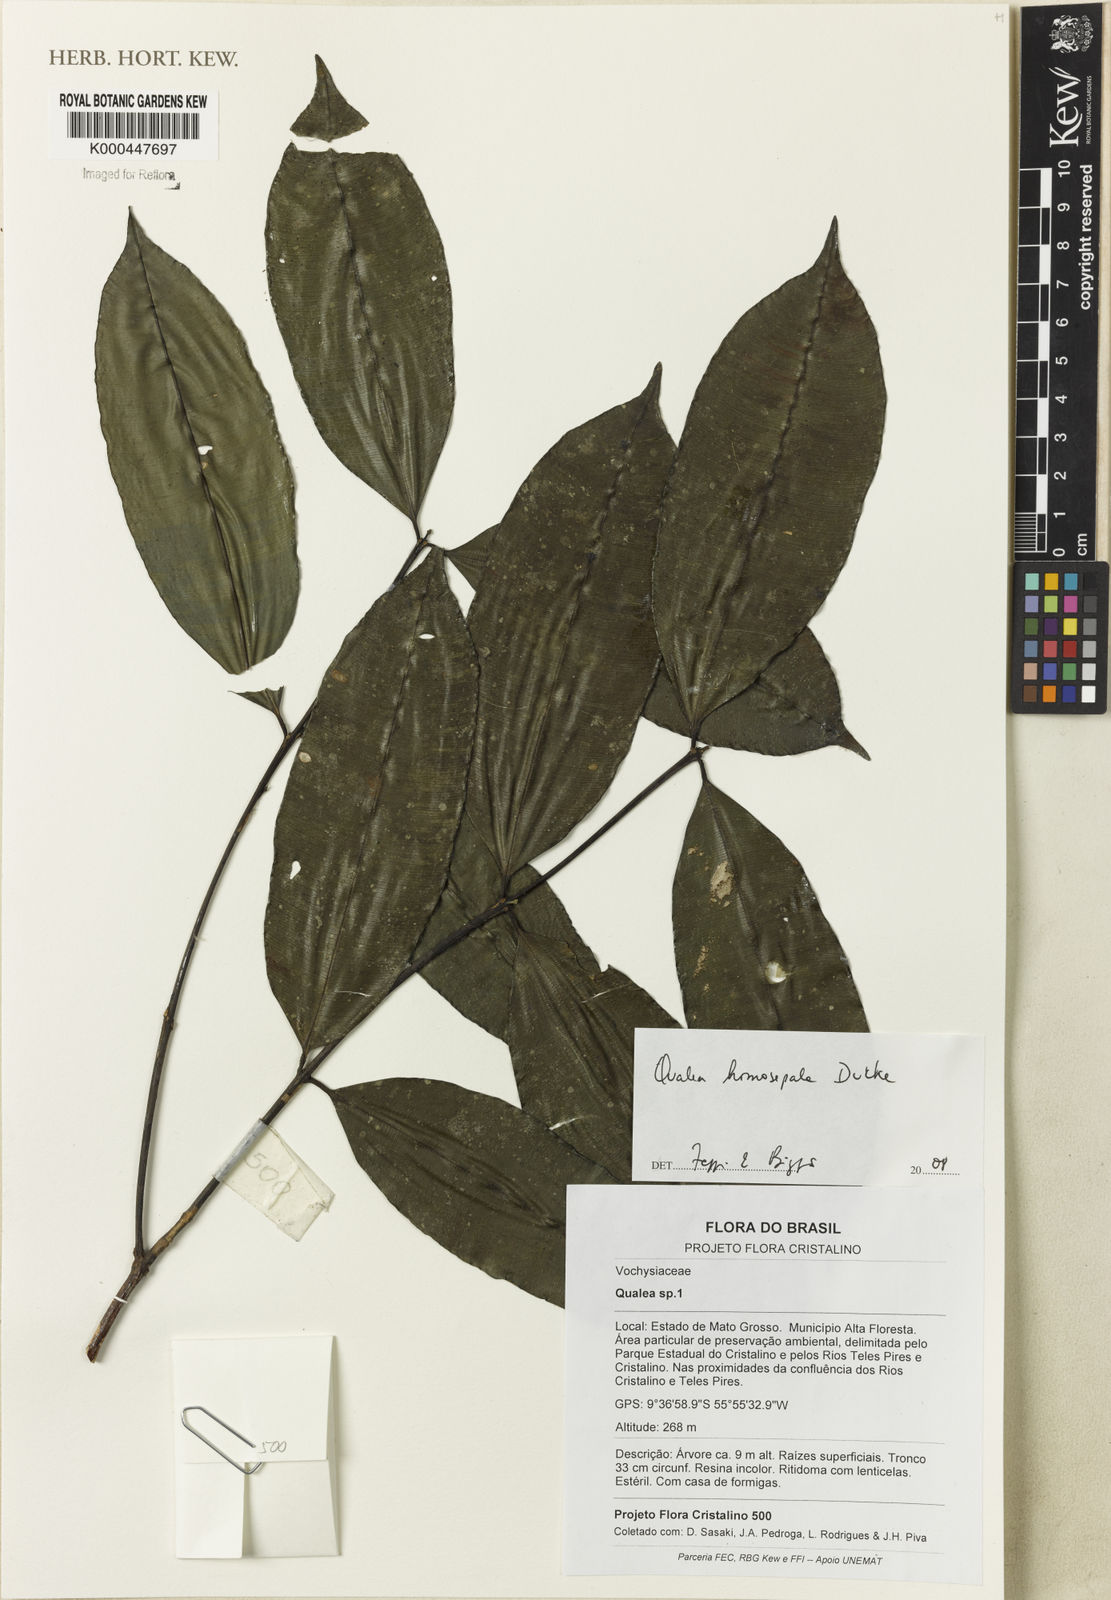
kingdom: Plantae
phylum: Tracheophyta
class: Magnoliopsida
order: Myrtales
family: Vochysiaceae
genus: Qualea
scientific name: Qualea homosepala
